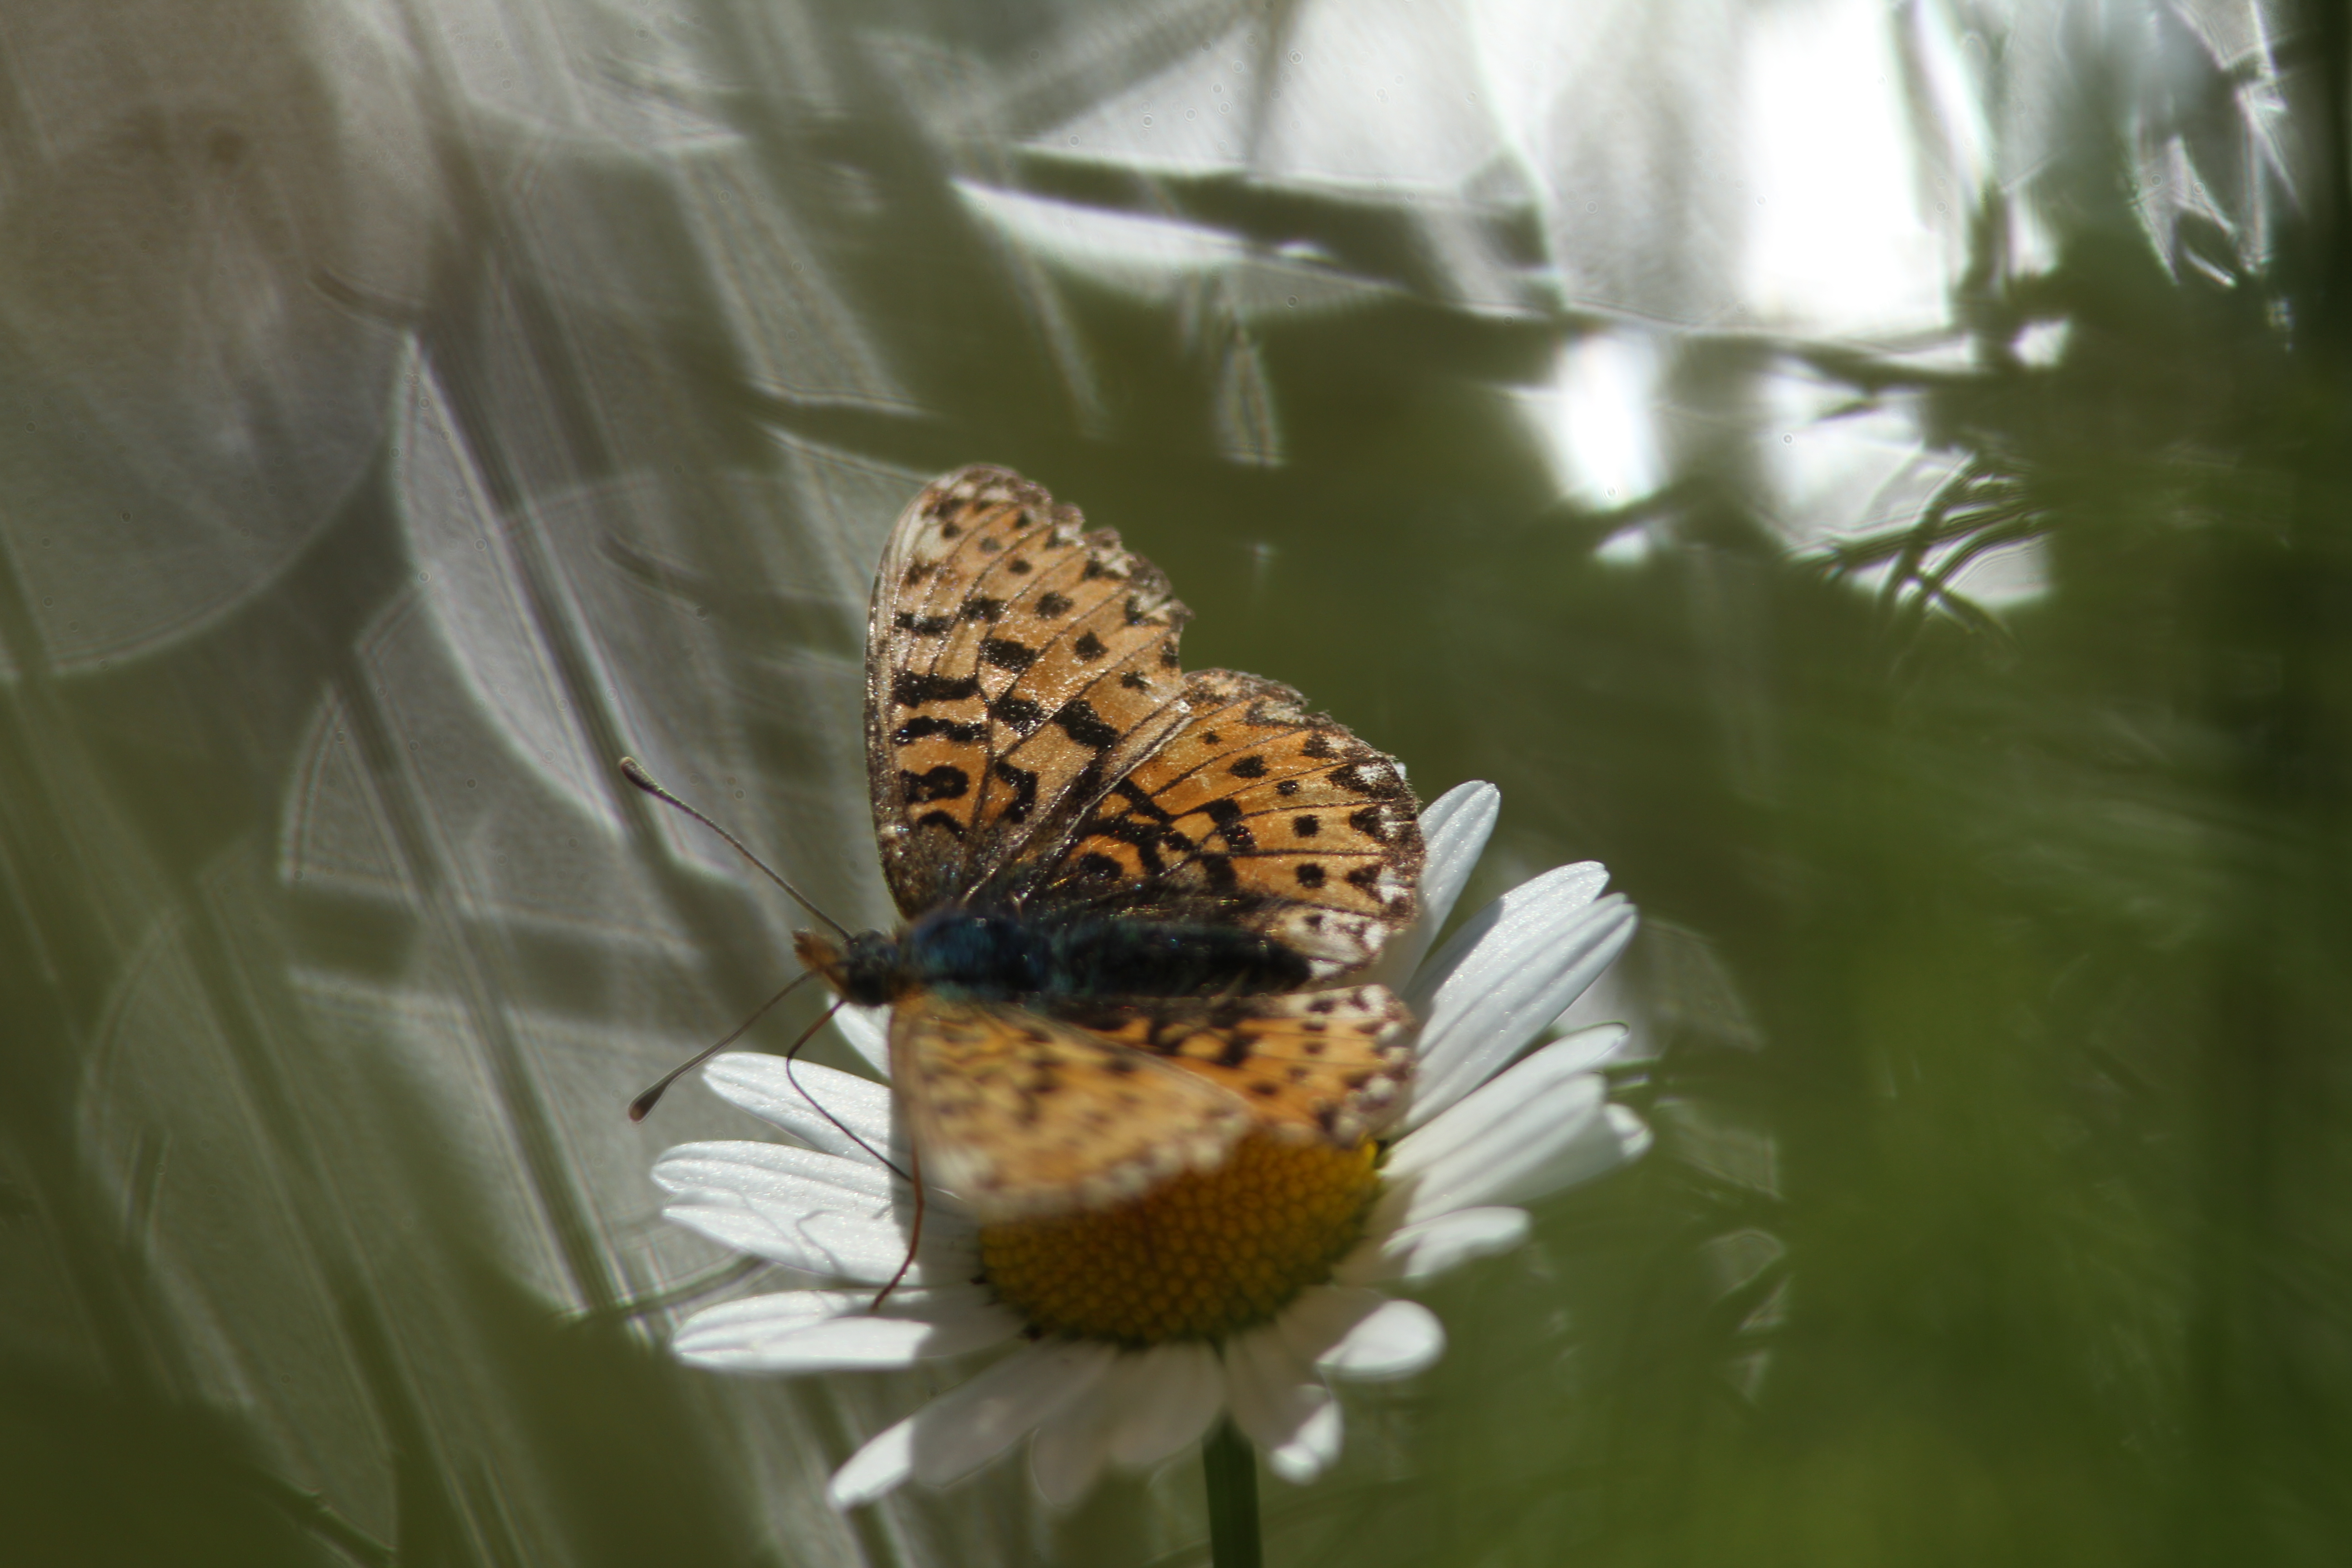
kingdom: Animalia
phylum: Arthropoda
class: Insecta
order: Lepidoptera
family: Nymphalidae
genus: Boloria
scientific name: Boloria selene
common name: Small pearl-bordered fritillary
